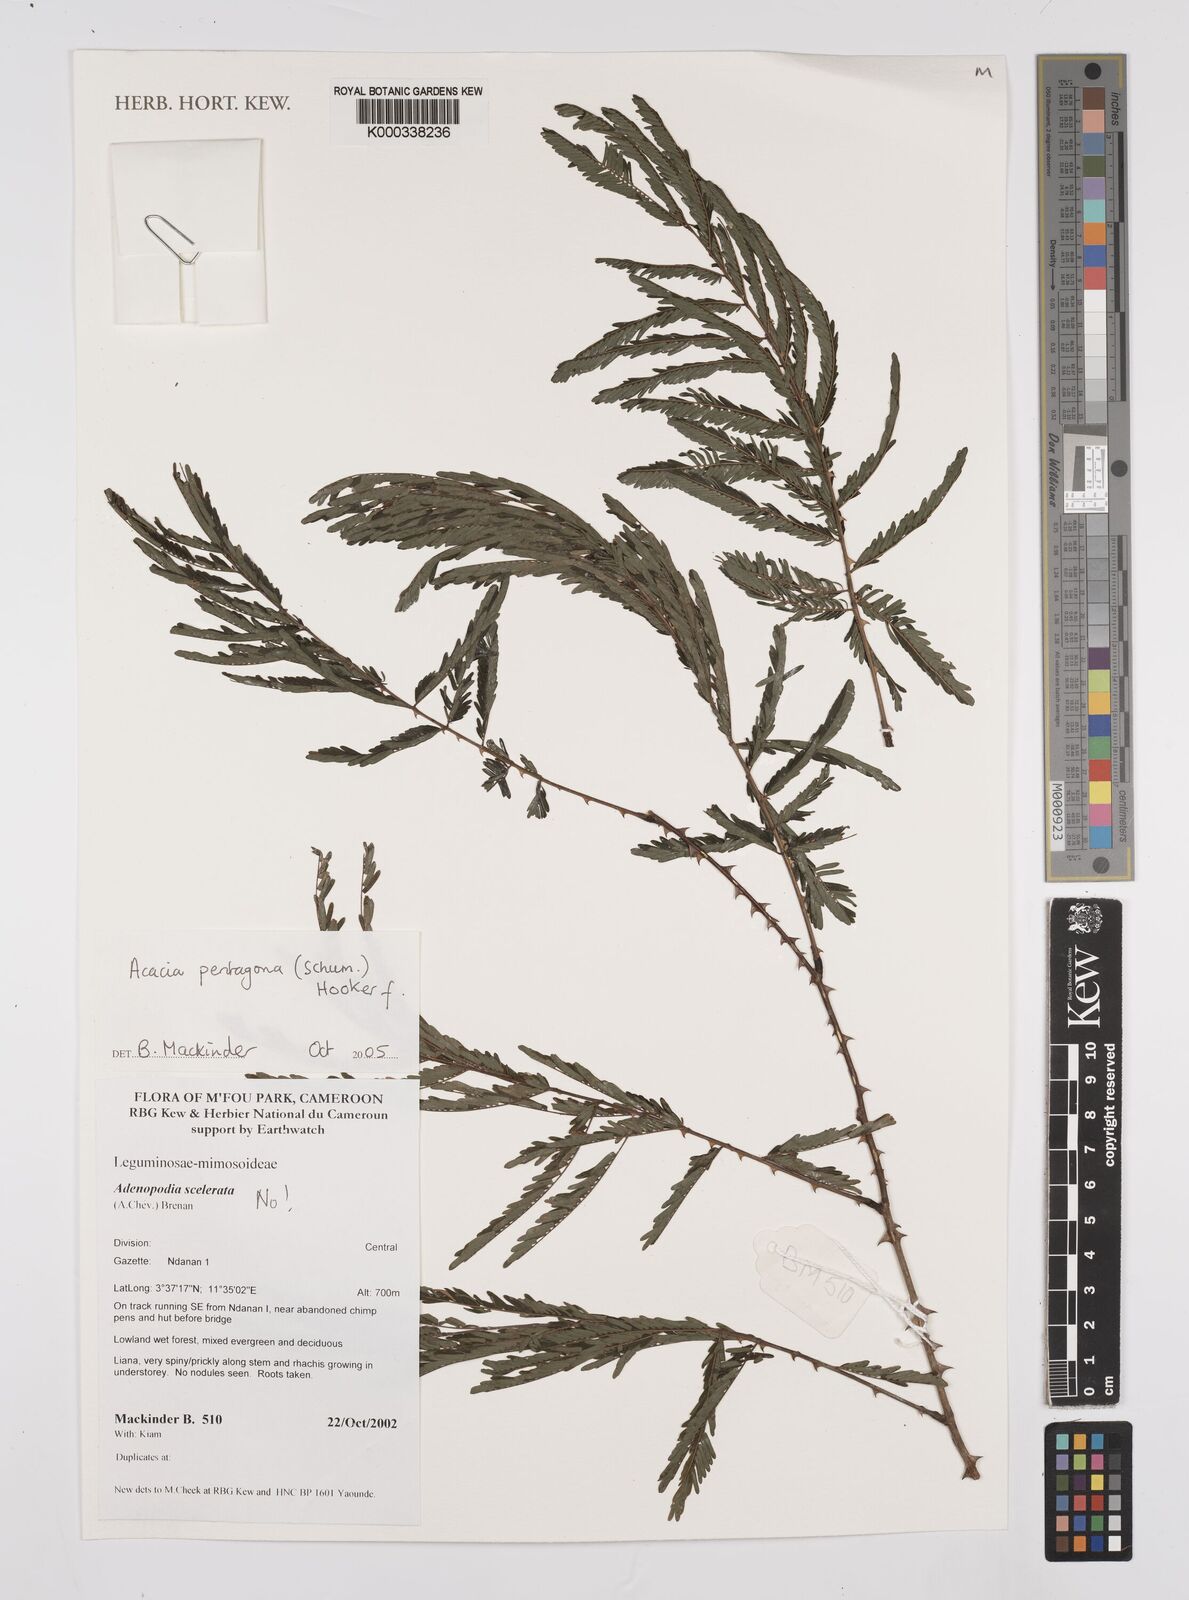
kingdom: Plantae
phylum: Tracheophyta
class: Magnoliopsida
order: Fabales
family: Fabaceae
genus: Senegalia
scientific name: Senegalia pentagona
